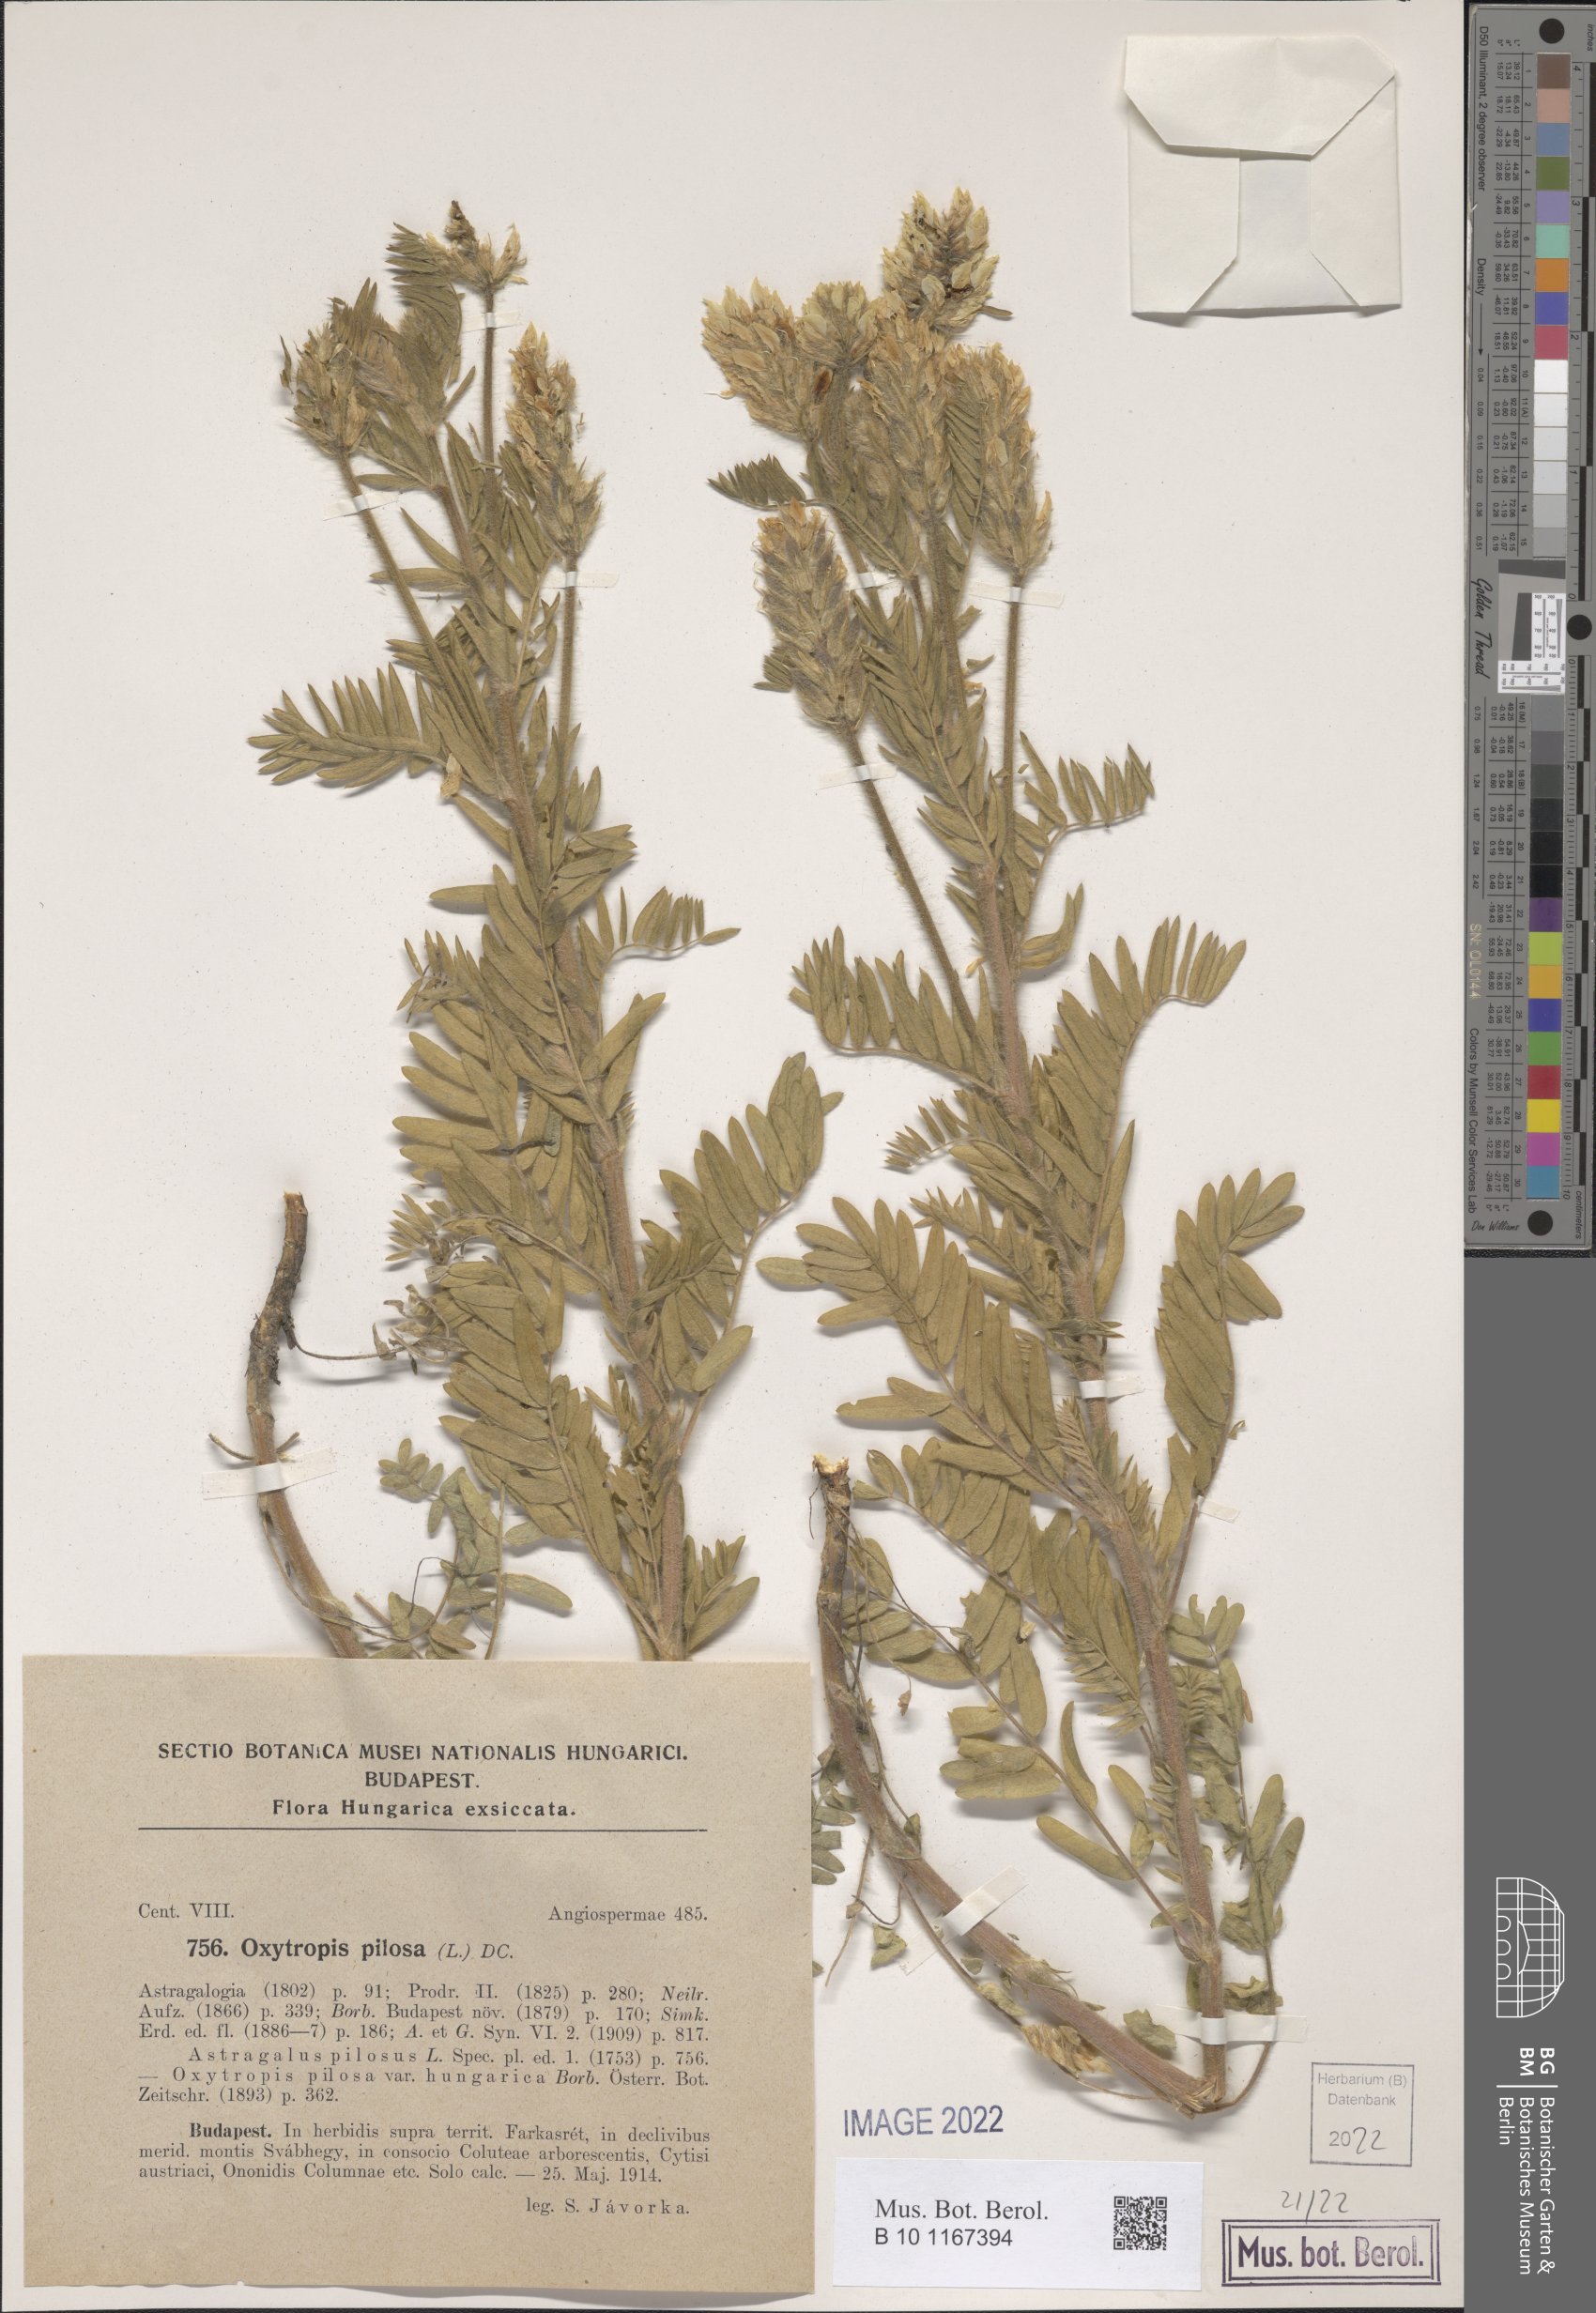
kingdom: Plantae
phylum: Tracheophyta
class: Magnoliopsida
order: Fabales
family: Fabaceae
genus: Oxytropis
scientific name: Oxytropis pilosa
